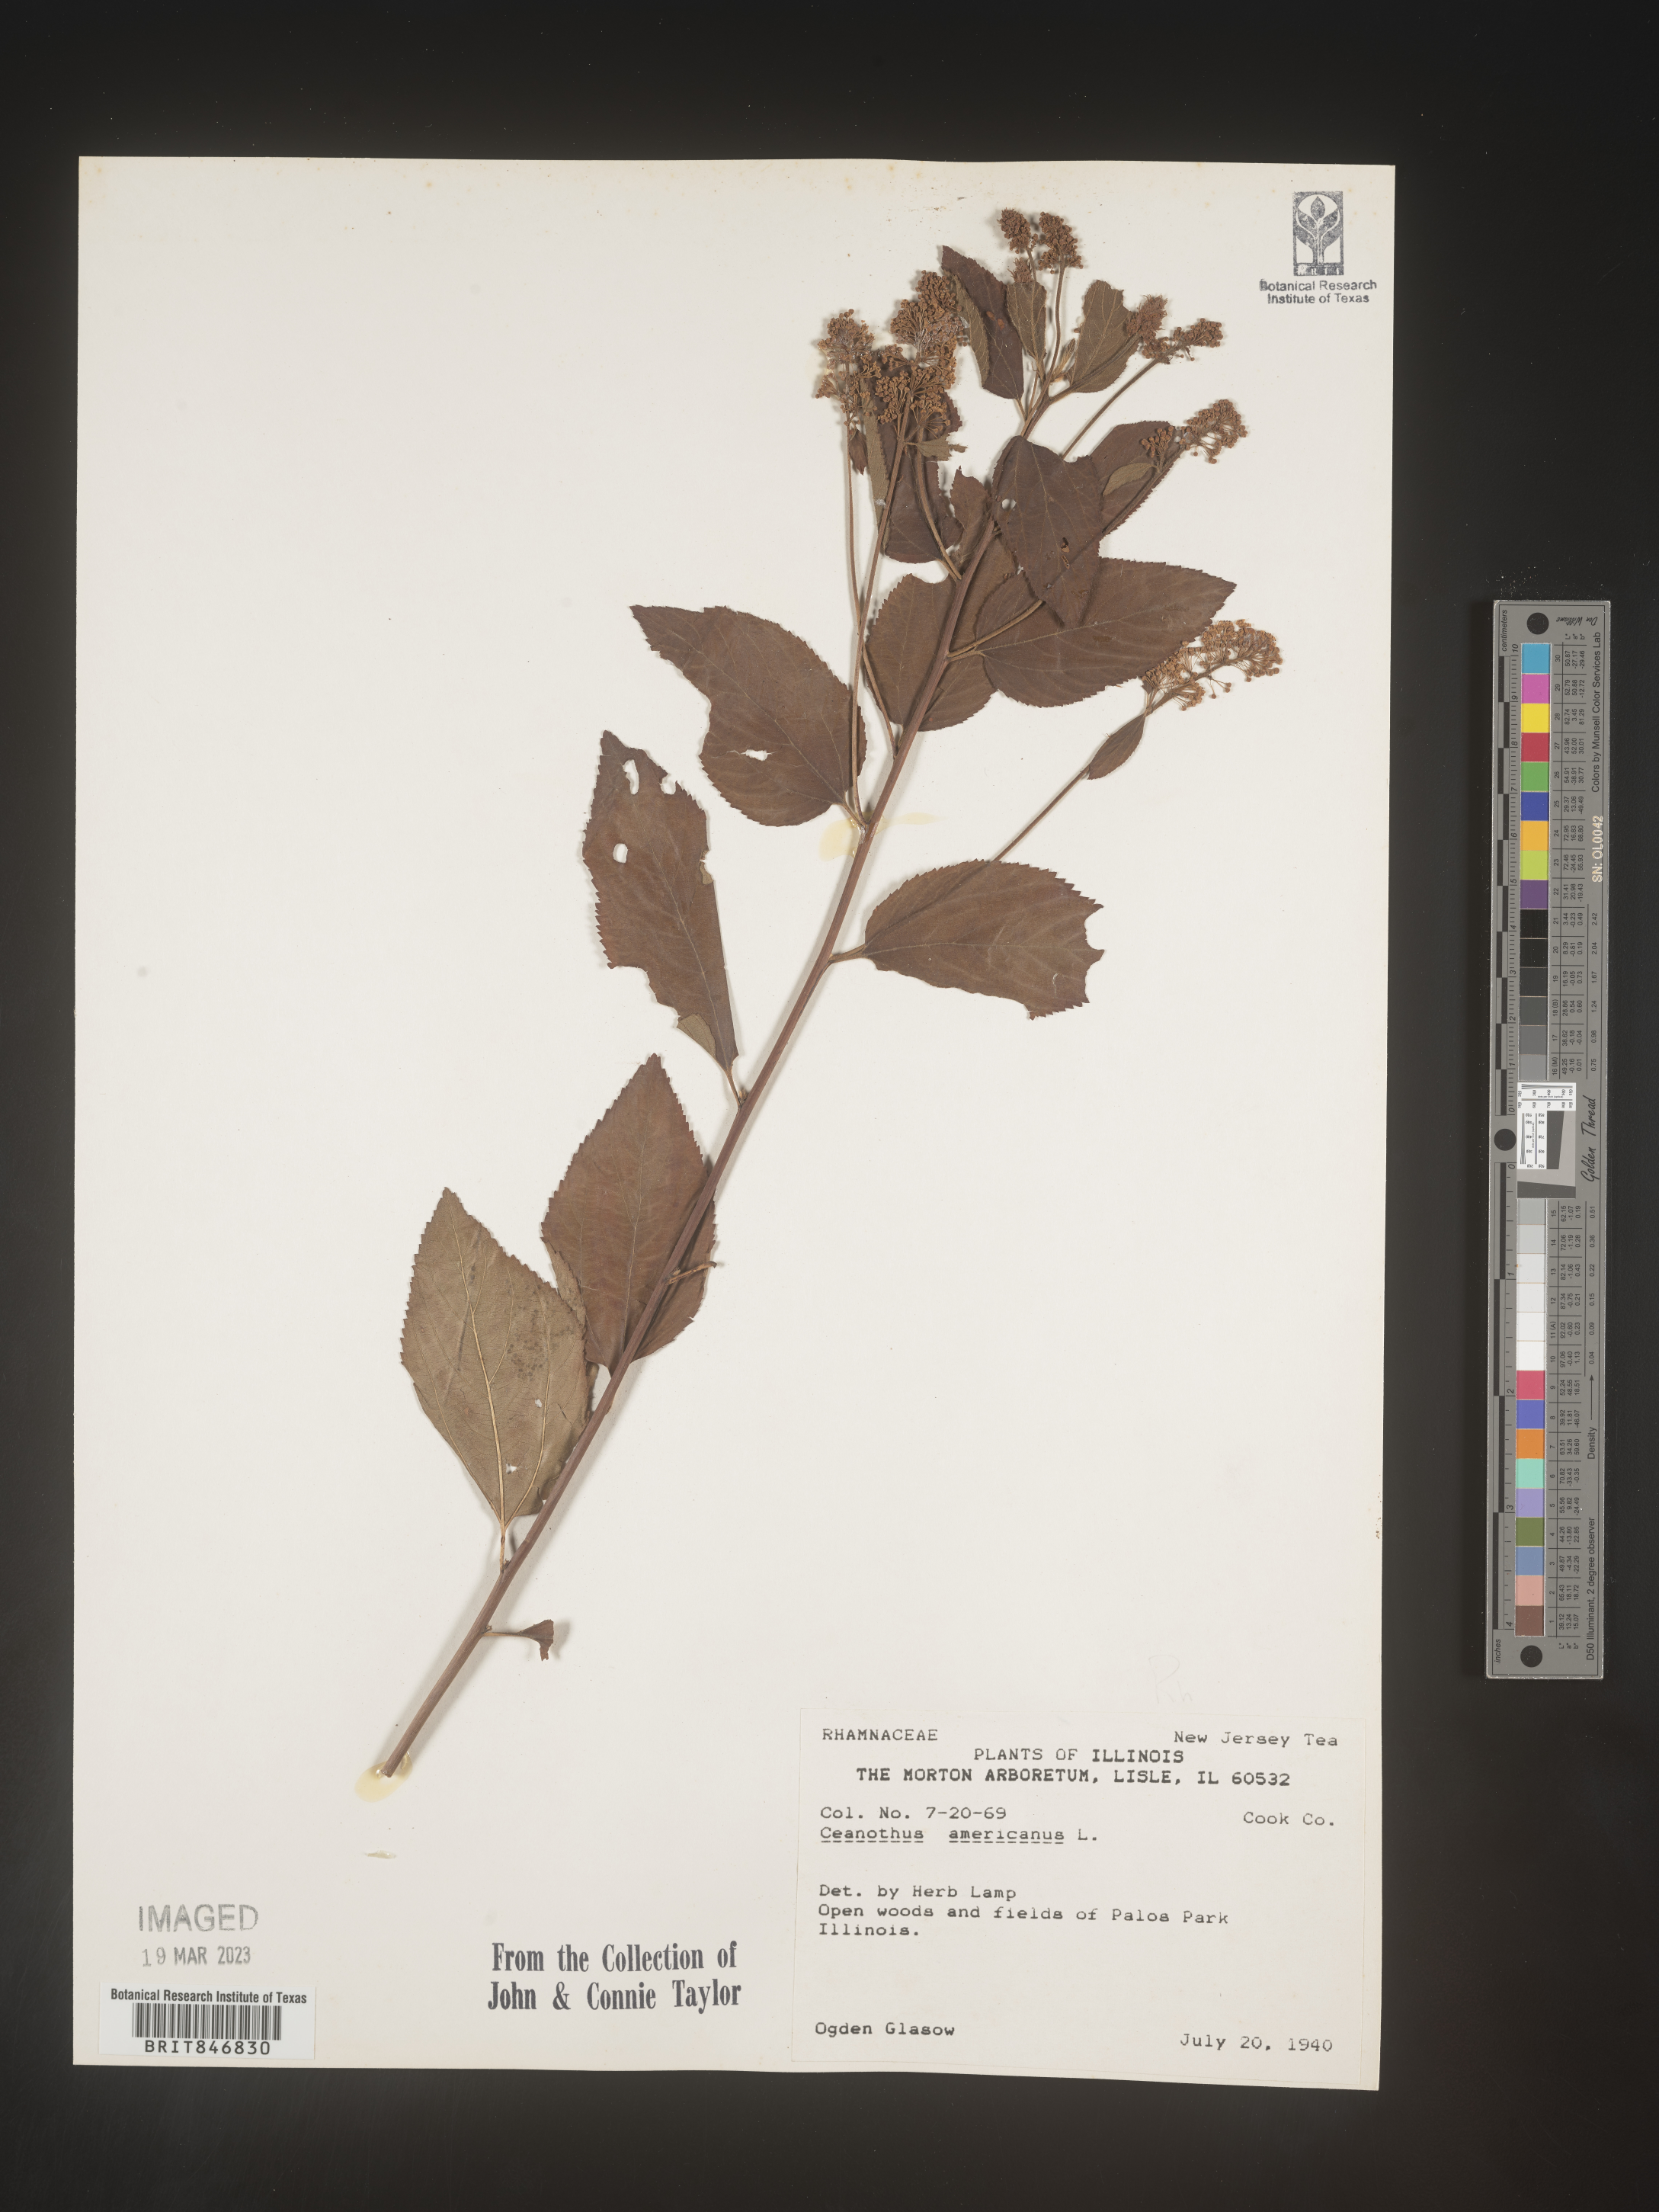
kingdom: Plantae
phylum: Tracheophyta
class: Magnoliopsida
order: Rosales
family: Rhamnaceae
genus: Ceanothus
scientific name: Ceanothus americanus
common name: Redroot
